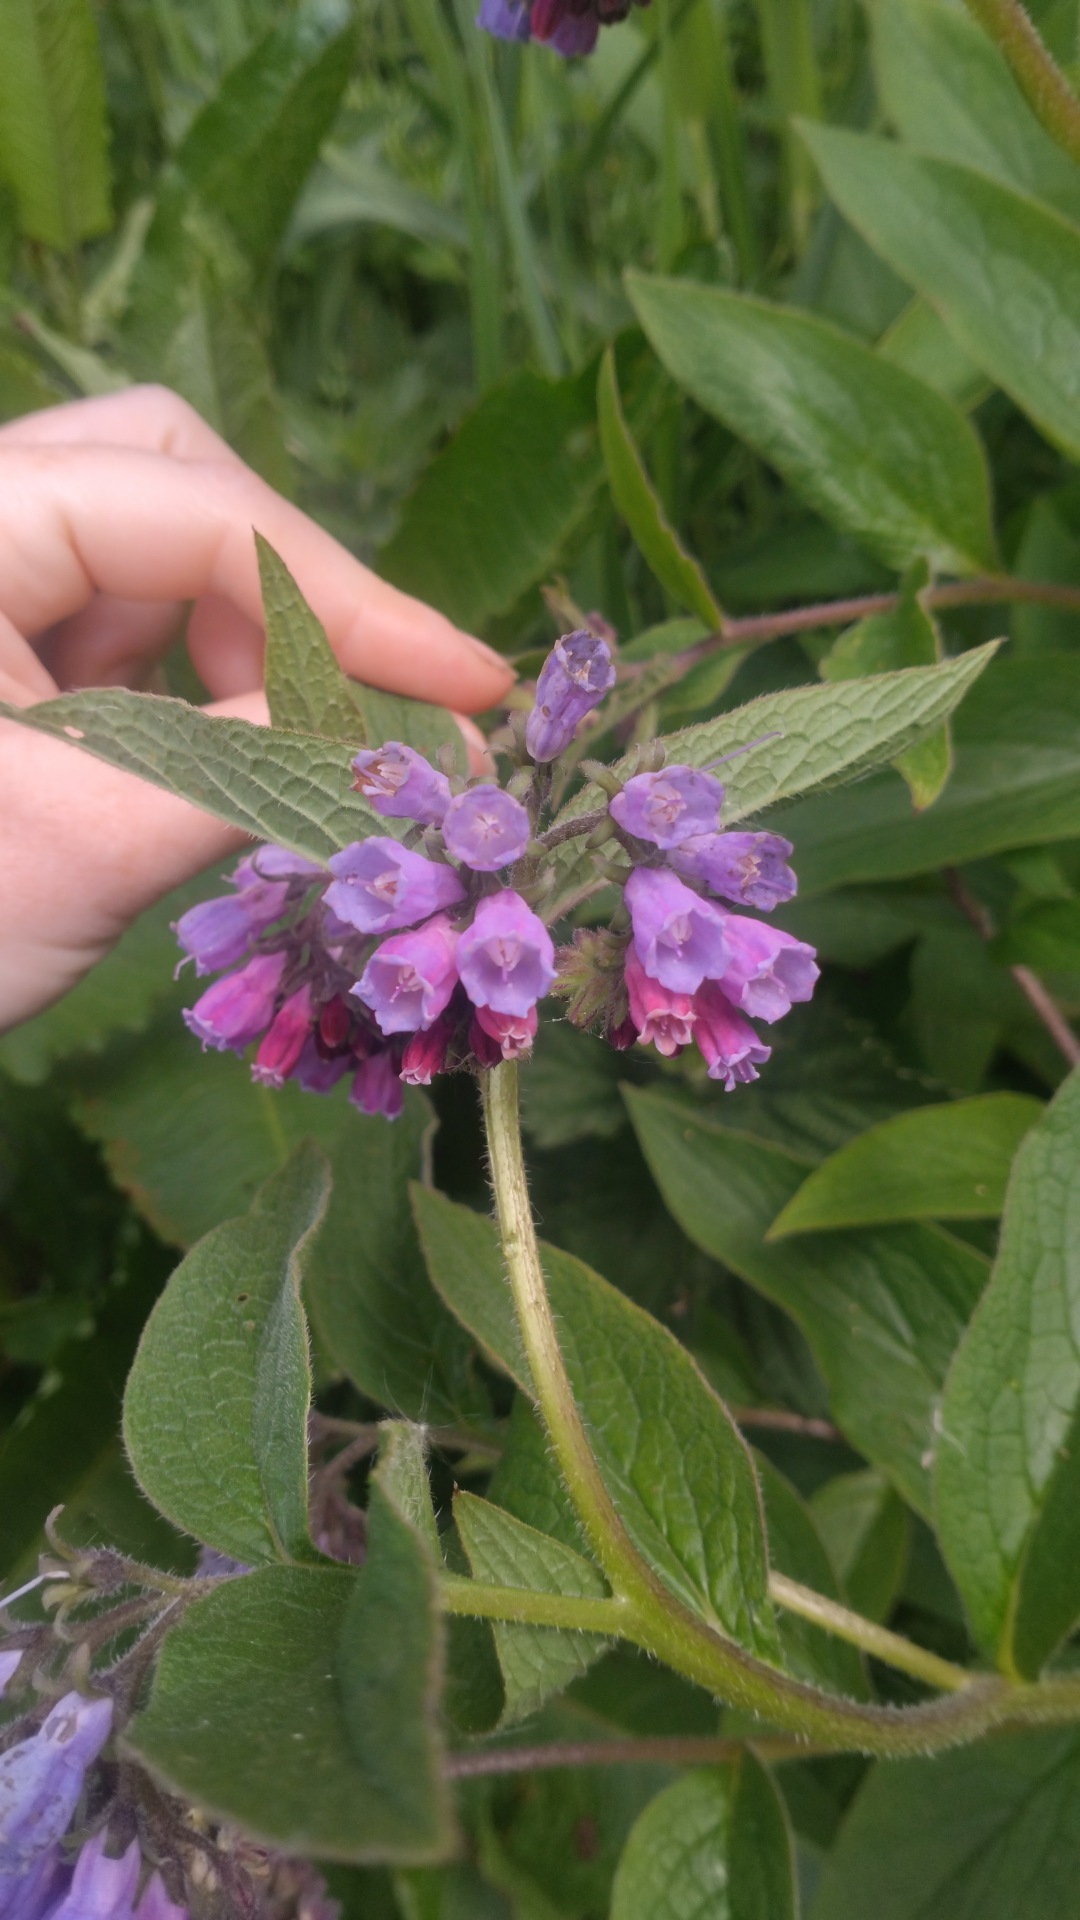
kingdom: Plantae
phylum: Tracheophyta
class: Magnoliopsida
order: Boraginales
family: Boraginaceae
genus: Symphytum
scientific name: Symphytum uplandicum
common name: Foder-kulsukker
